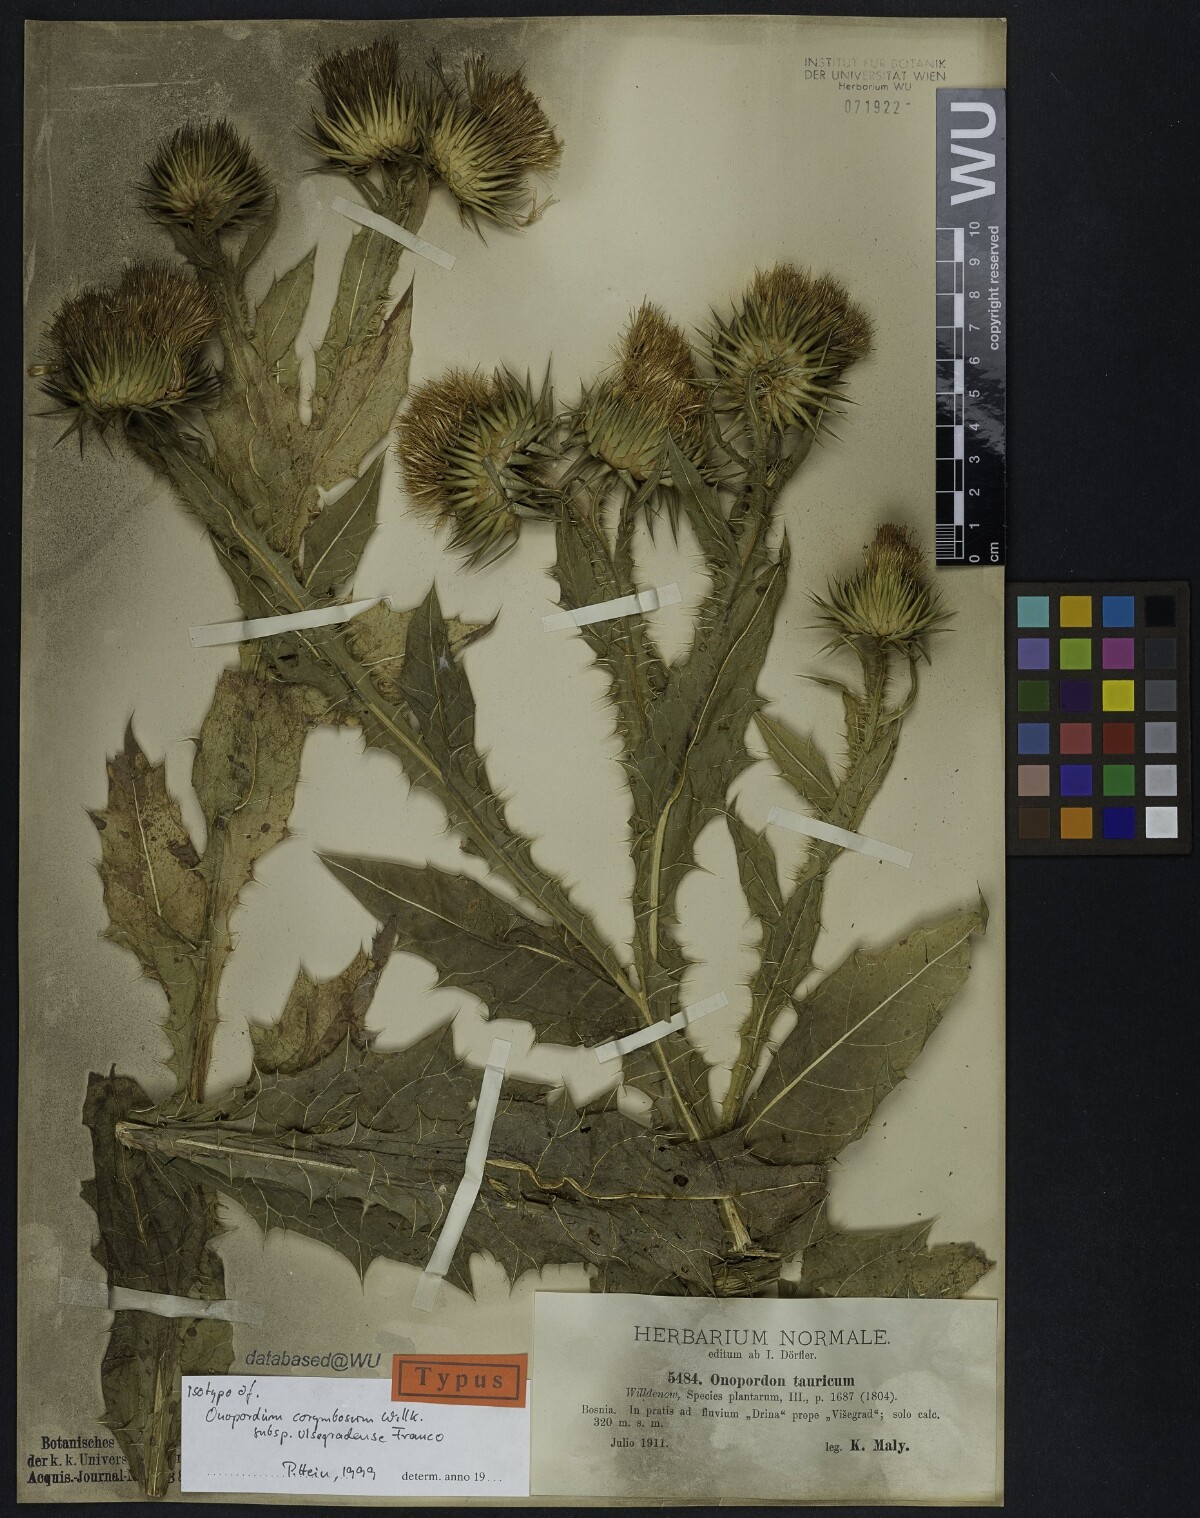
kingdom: Plantae
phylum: Tracheophyta
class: Magnoliopsida
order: Asterales
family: Asteraceae
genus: Onopordum
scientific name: Onopordum tauricum
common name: Bull cottonthistle
